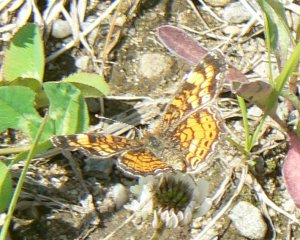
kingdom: Animalia
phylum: Arthropoda
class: Insecta
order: Lepidoptera
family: Nymphalidae
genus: Phyciodes
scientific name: Phyciodes tharos
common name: Pearl Crescent
